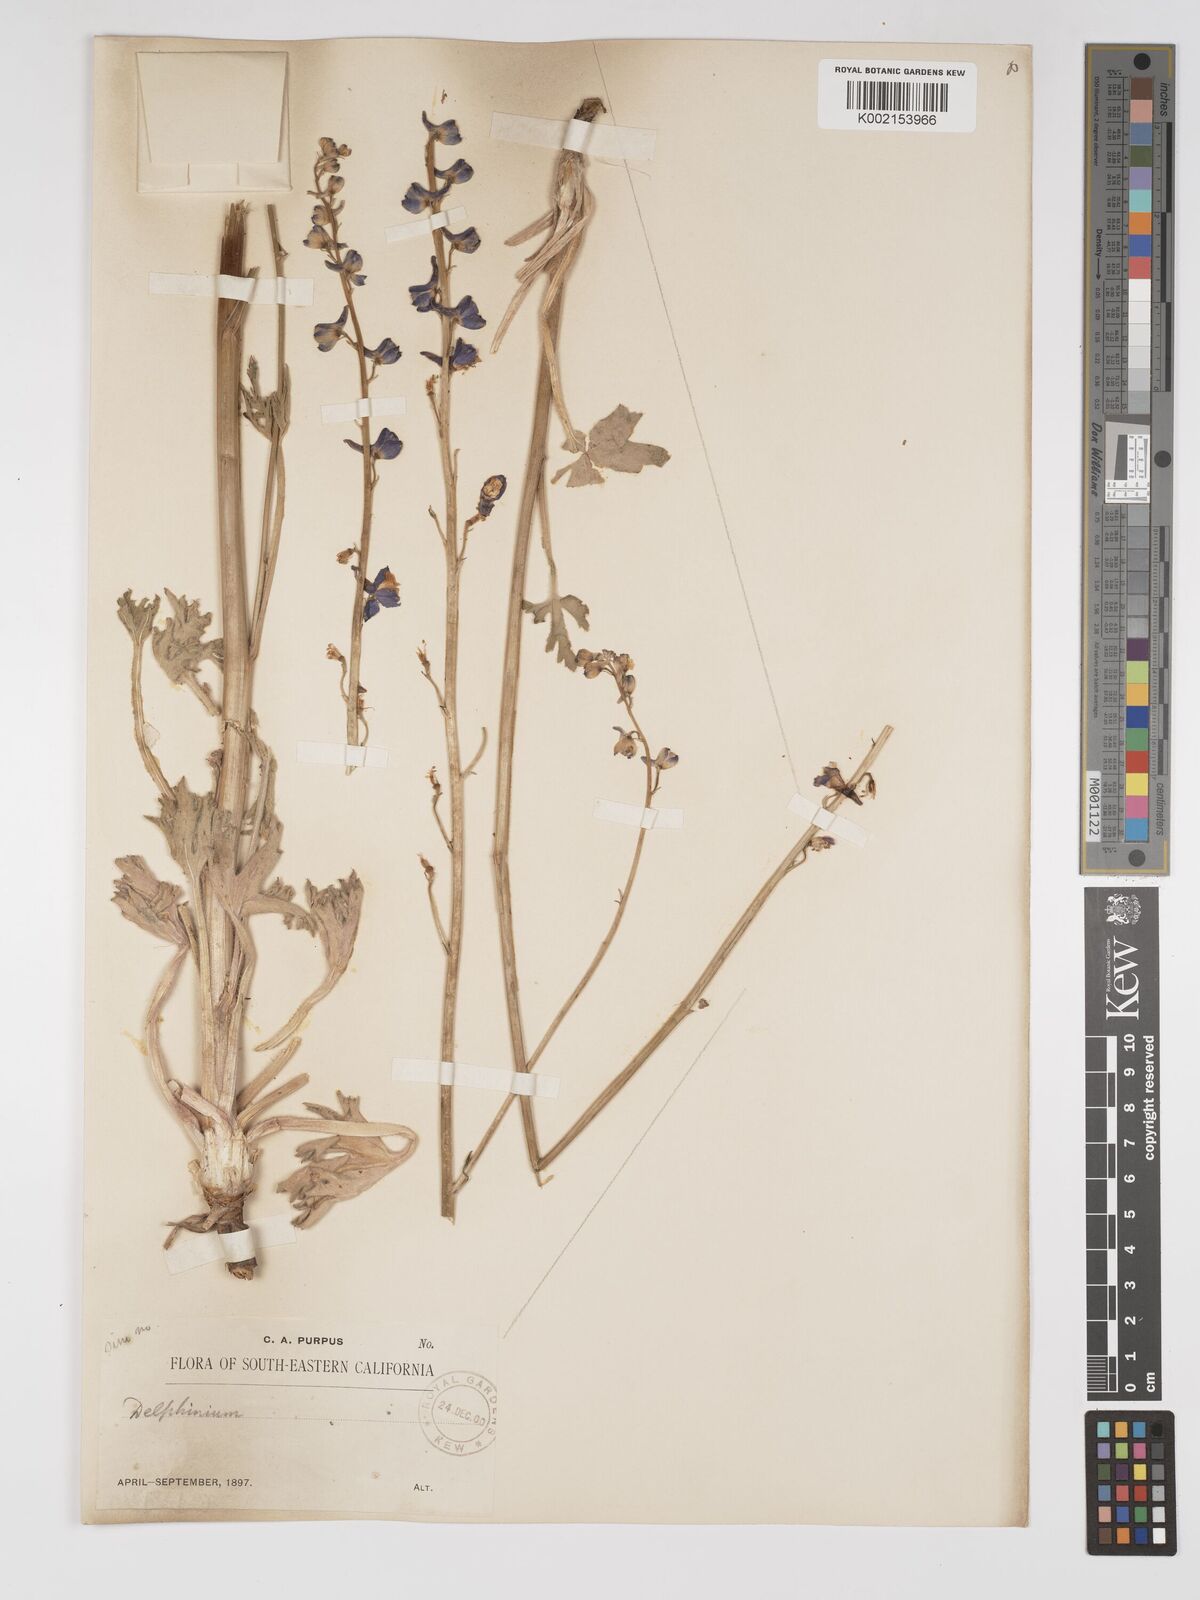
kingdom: Plantae
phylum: Tracheophyta
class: Magnoliopsida
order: Ranunculales
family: Ranunculaceae
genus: Delphinium
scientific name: Delphinium hansenii
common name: Hansen's larkspur
